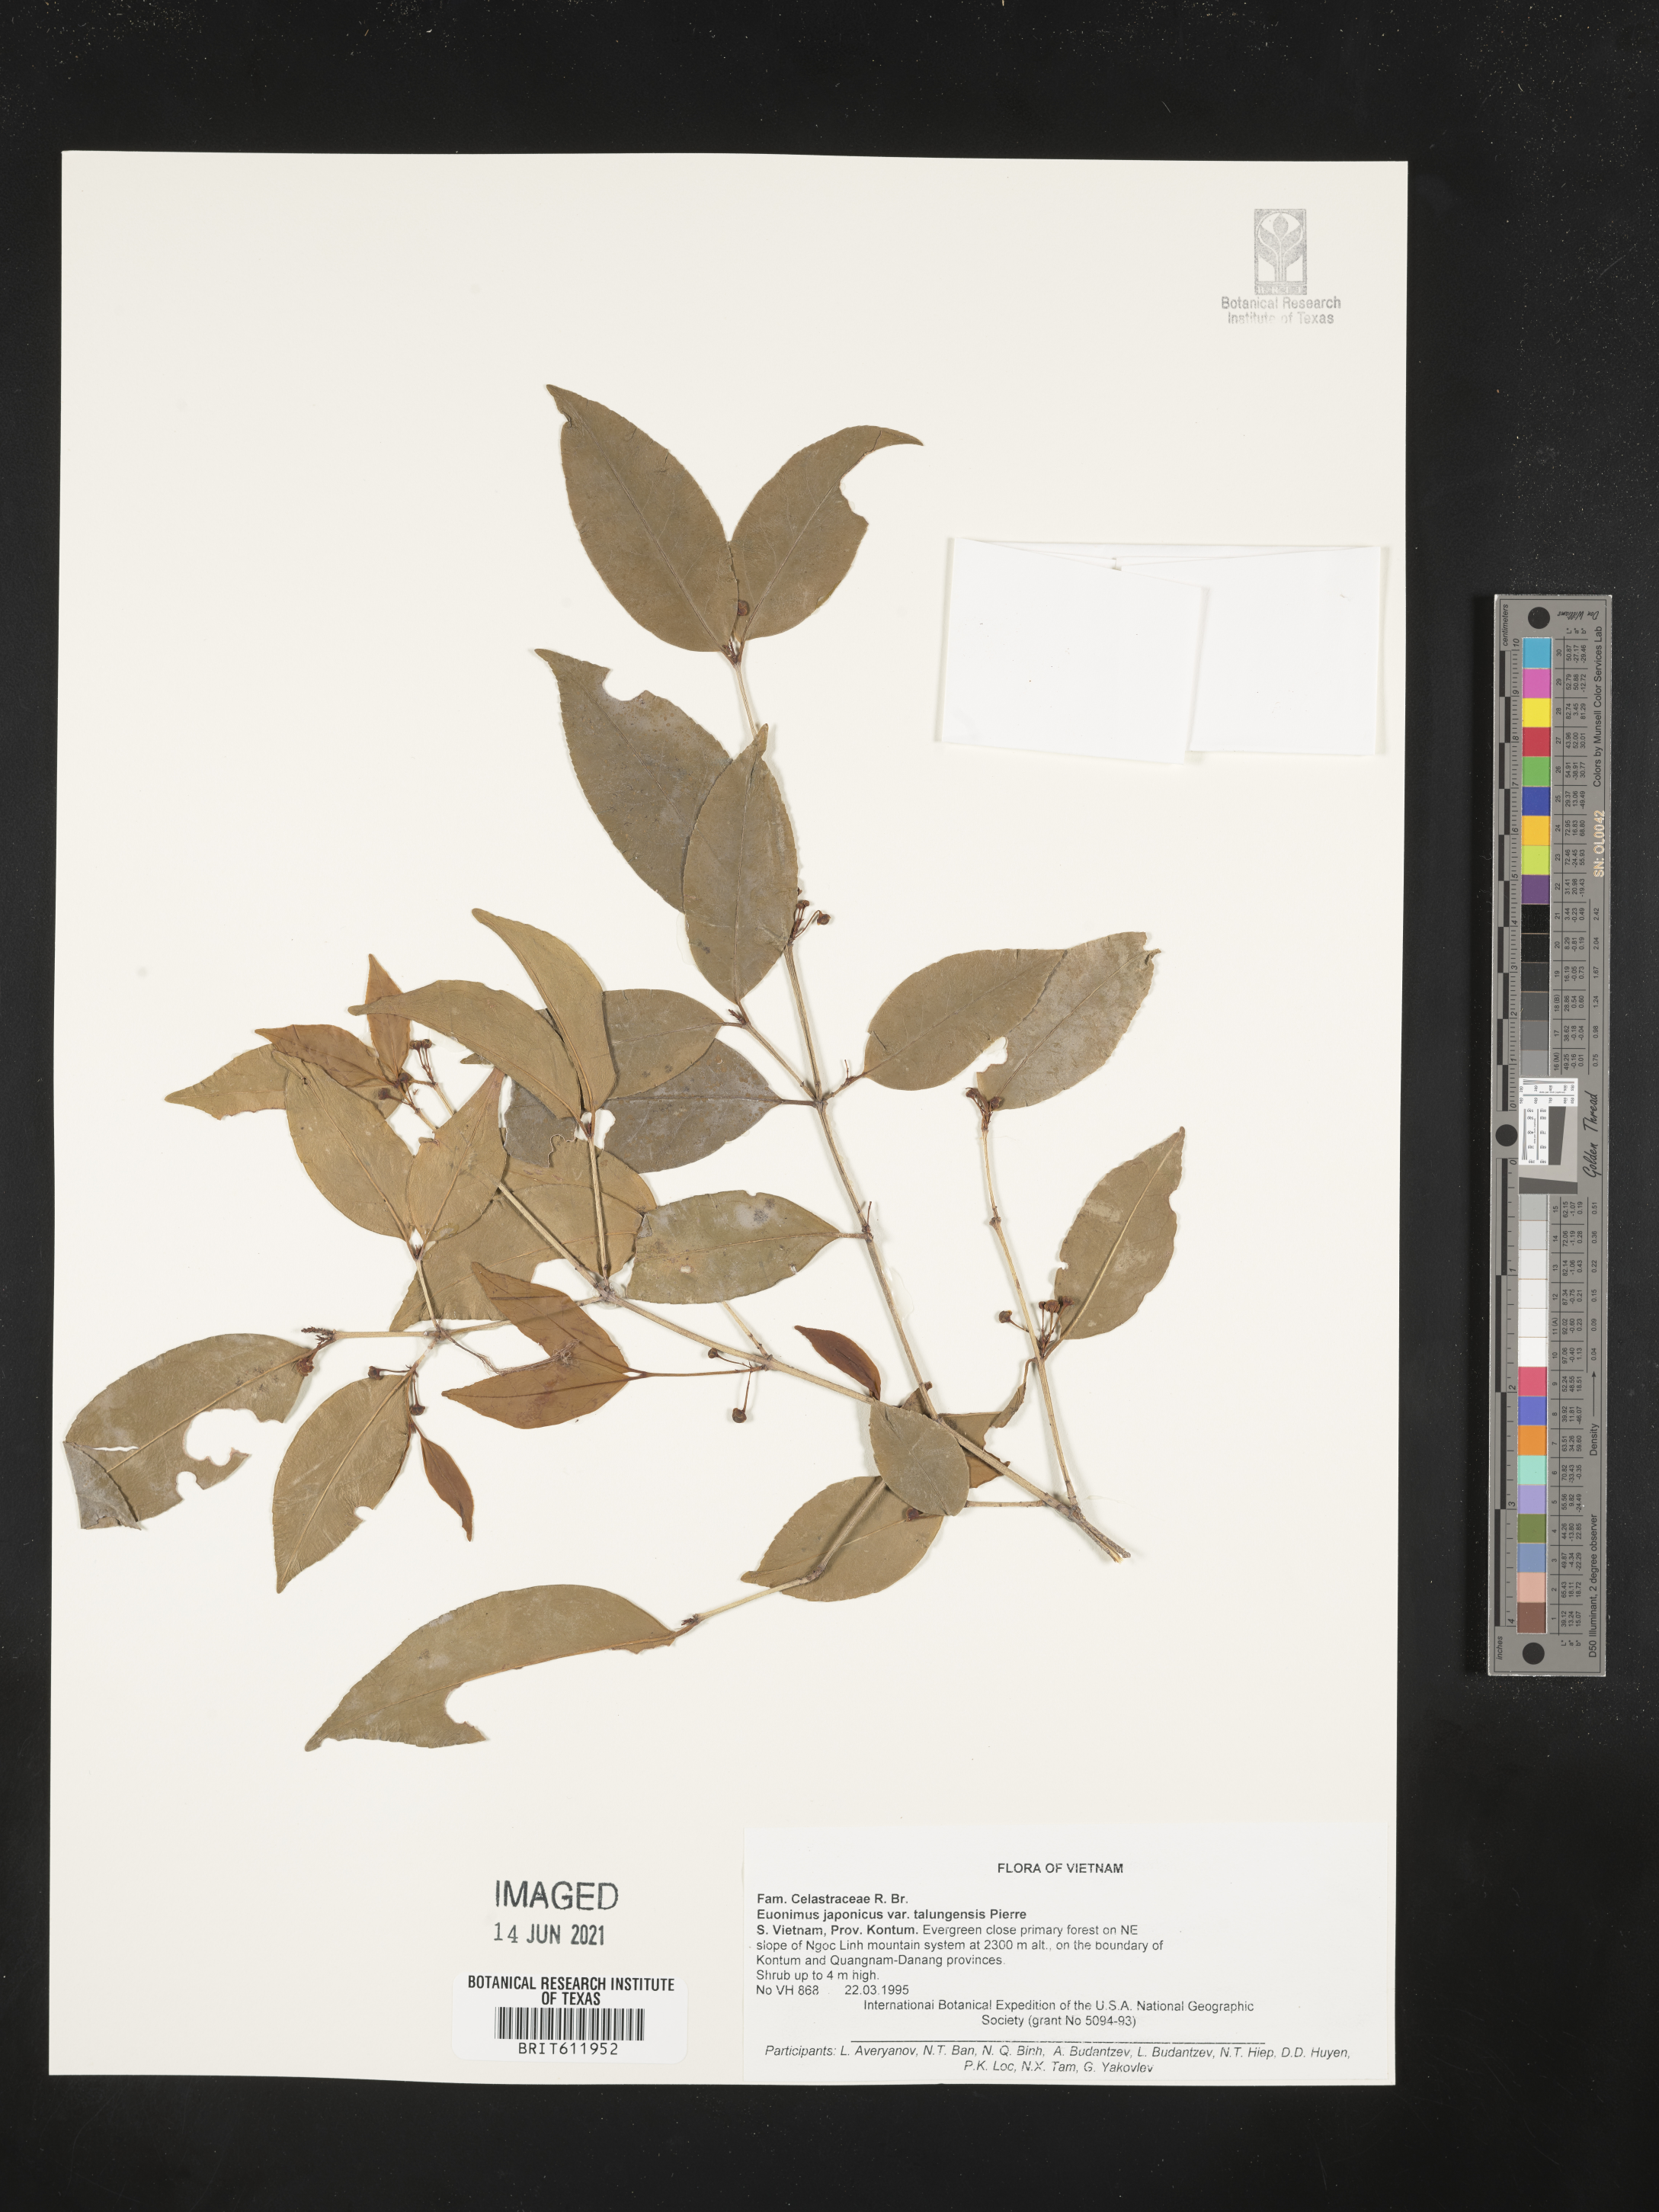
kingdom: Plantae
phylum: Tracheophyta
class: Magnoliopsida
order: Celastrales
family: Celastraceae
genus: Euonymus
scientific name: Euonymus japonicus
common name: Japanese spindletree
